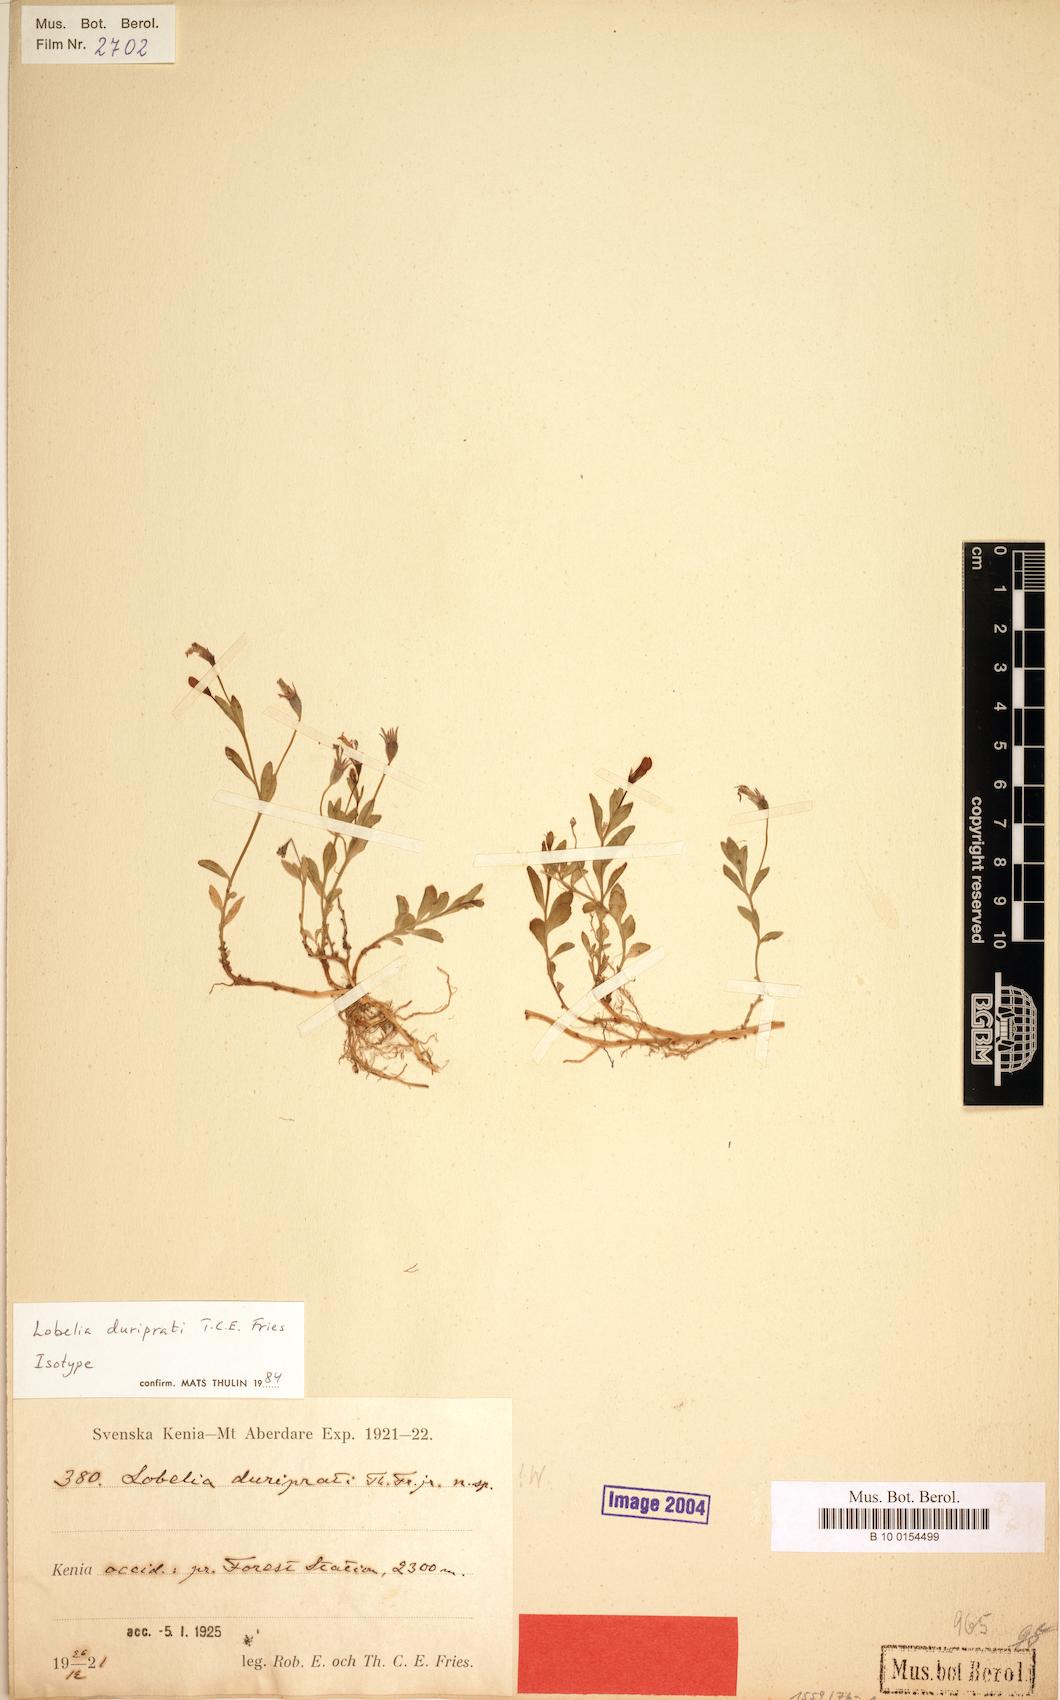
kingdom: Plantae
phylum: Tracheophyta
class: Magnoliopsida
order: Asterales
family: Campanulaceae
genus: Lobelia
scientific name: Lobelia duriprati
